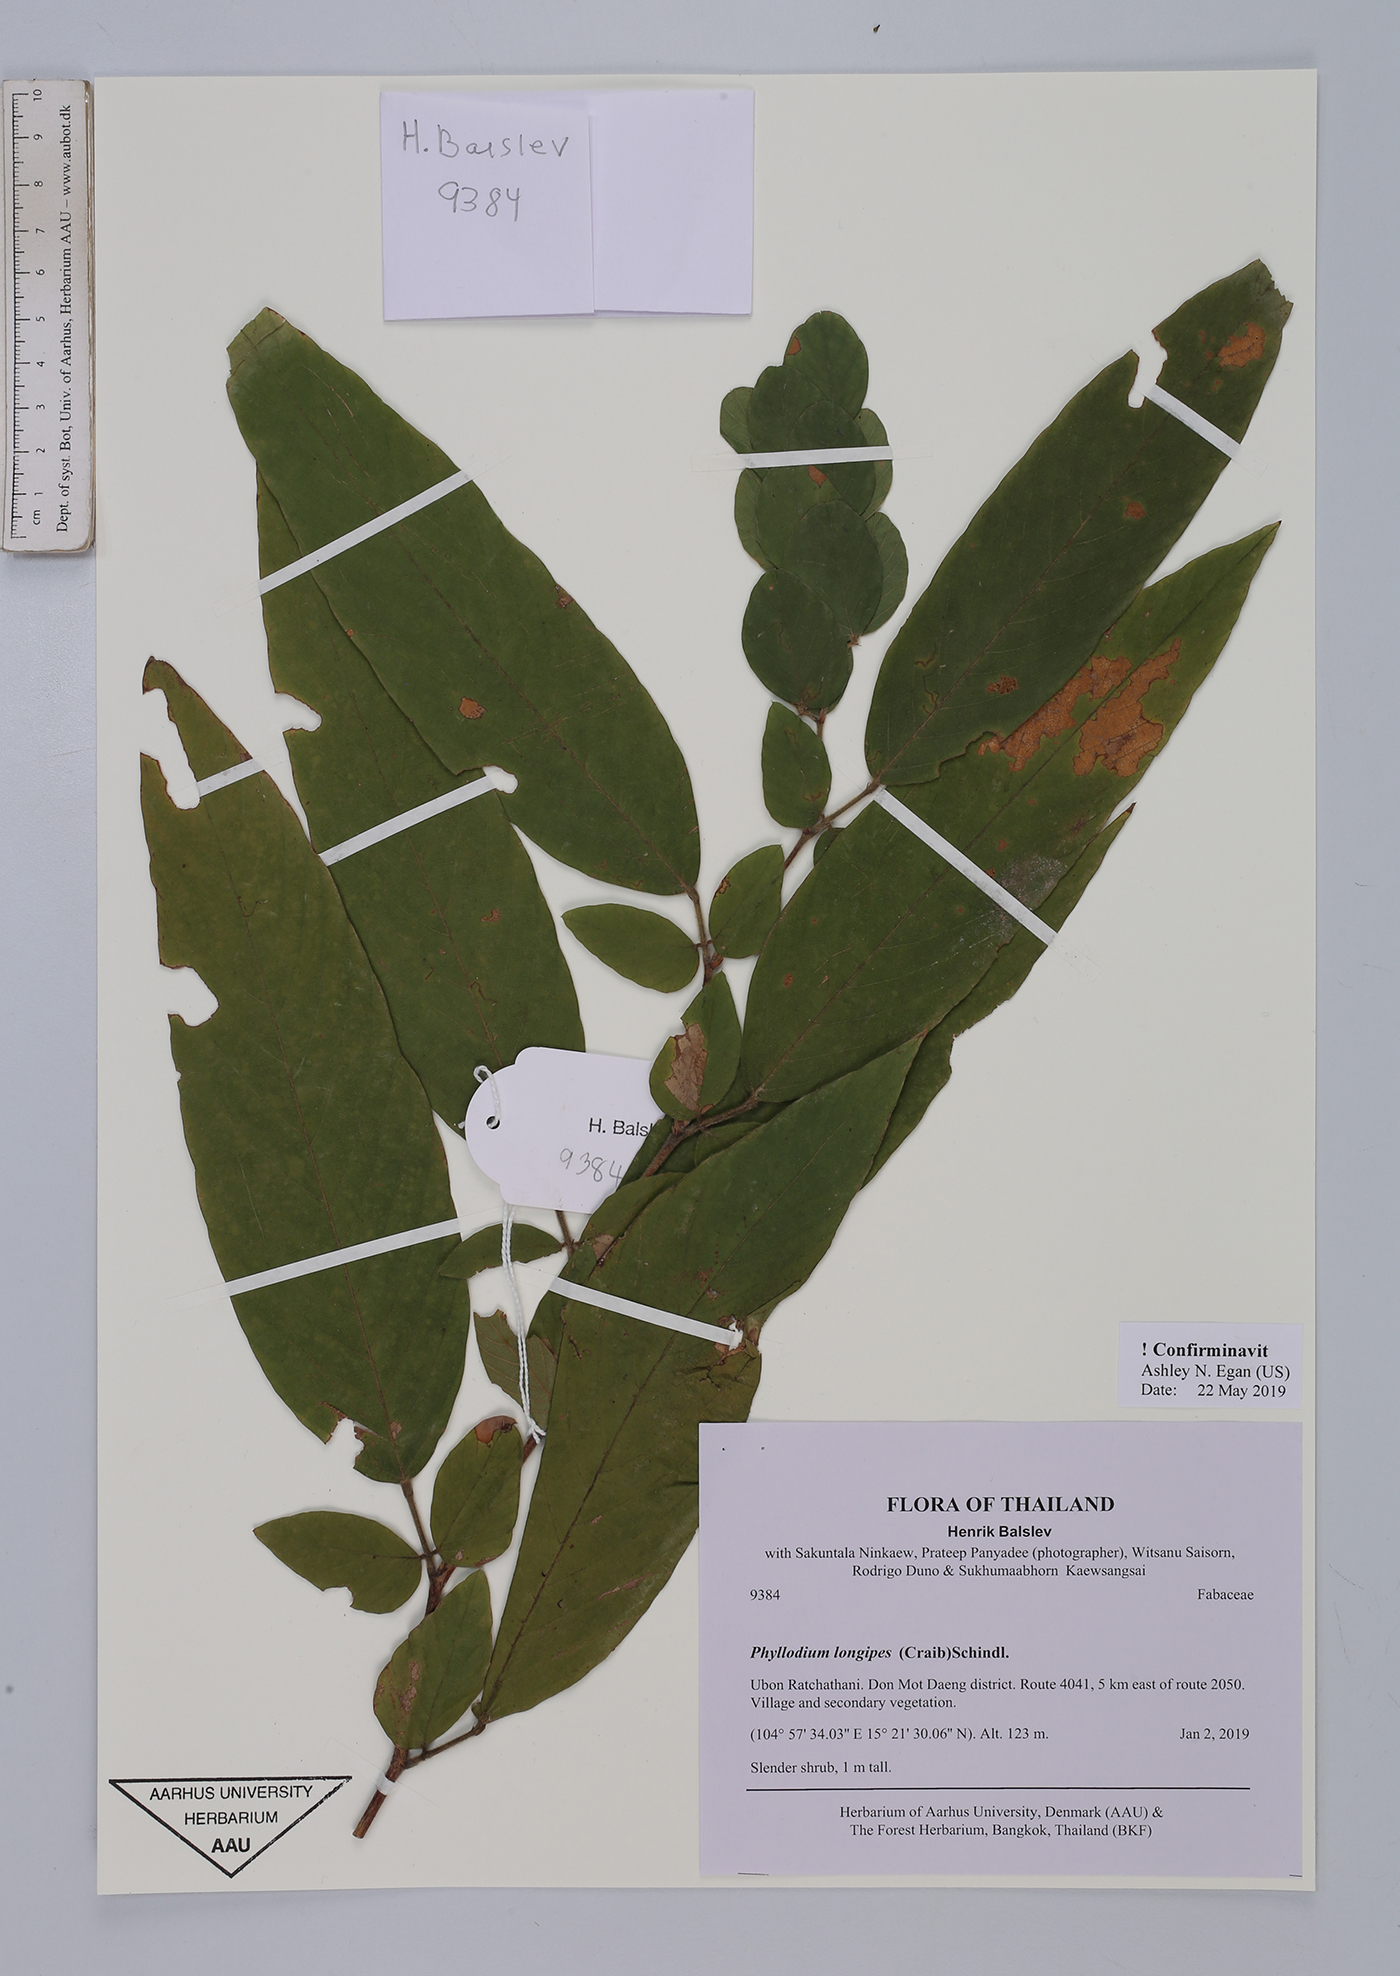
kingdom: Plantae
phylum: Tracheophyta
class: Magnoliopsida
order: Fabales
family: Fabaceae
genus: Phyllodium
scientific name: Phyllodium longipes
